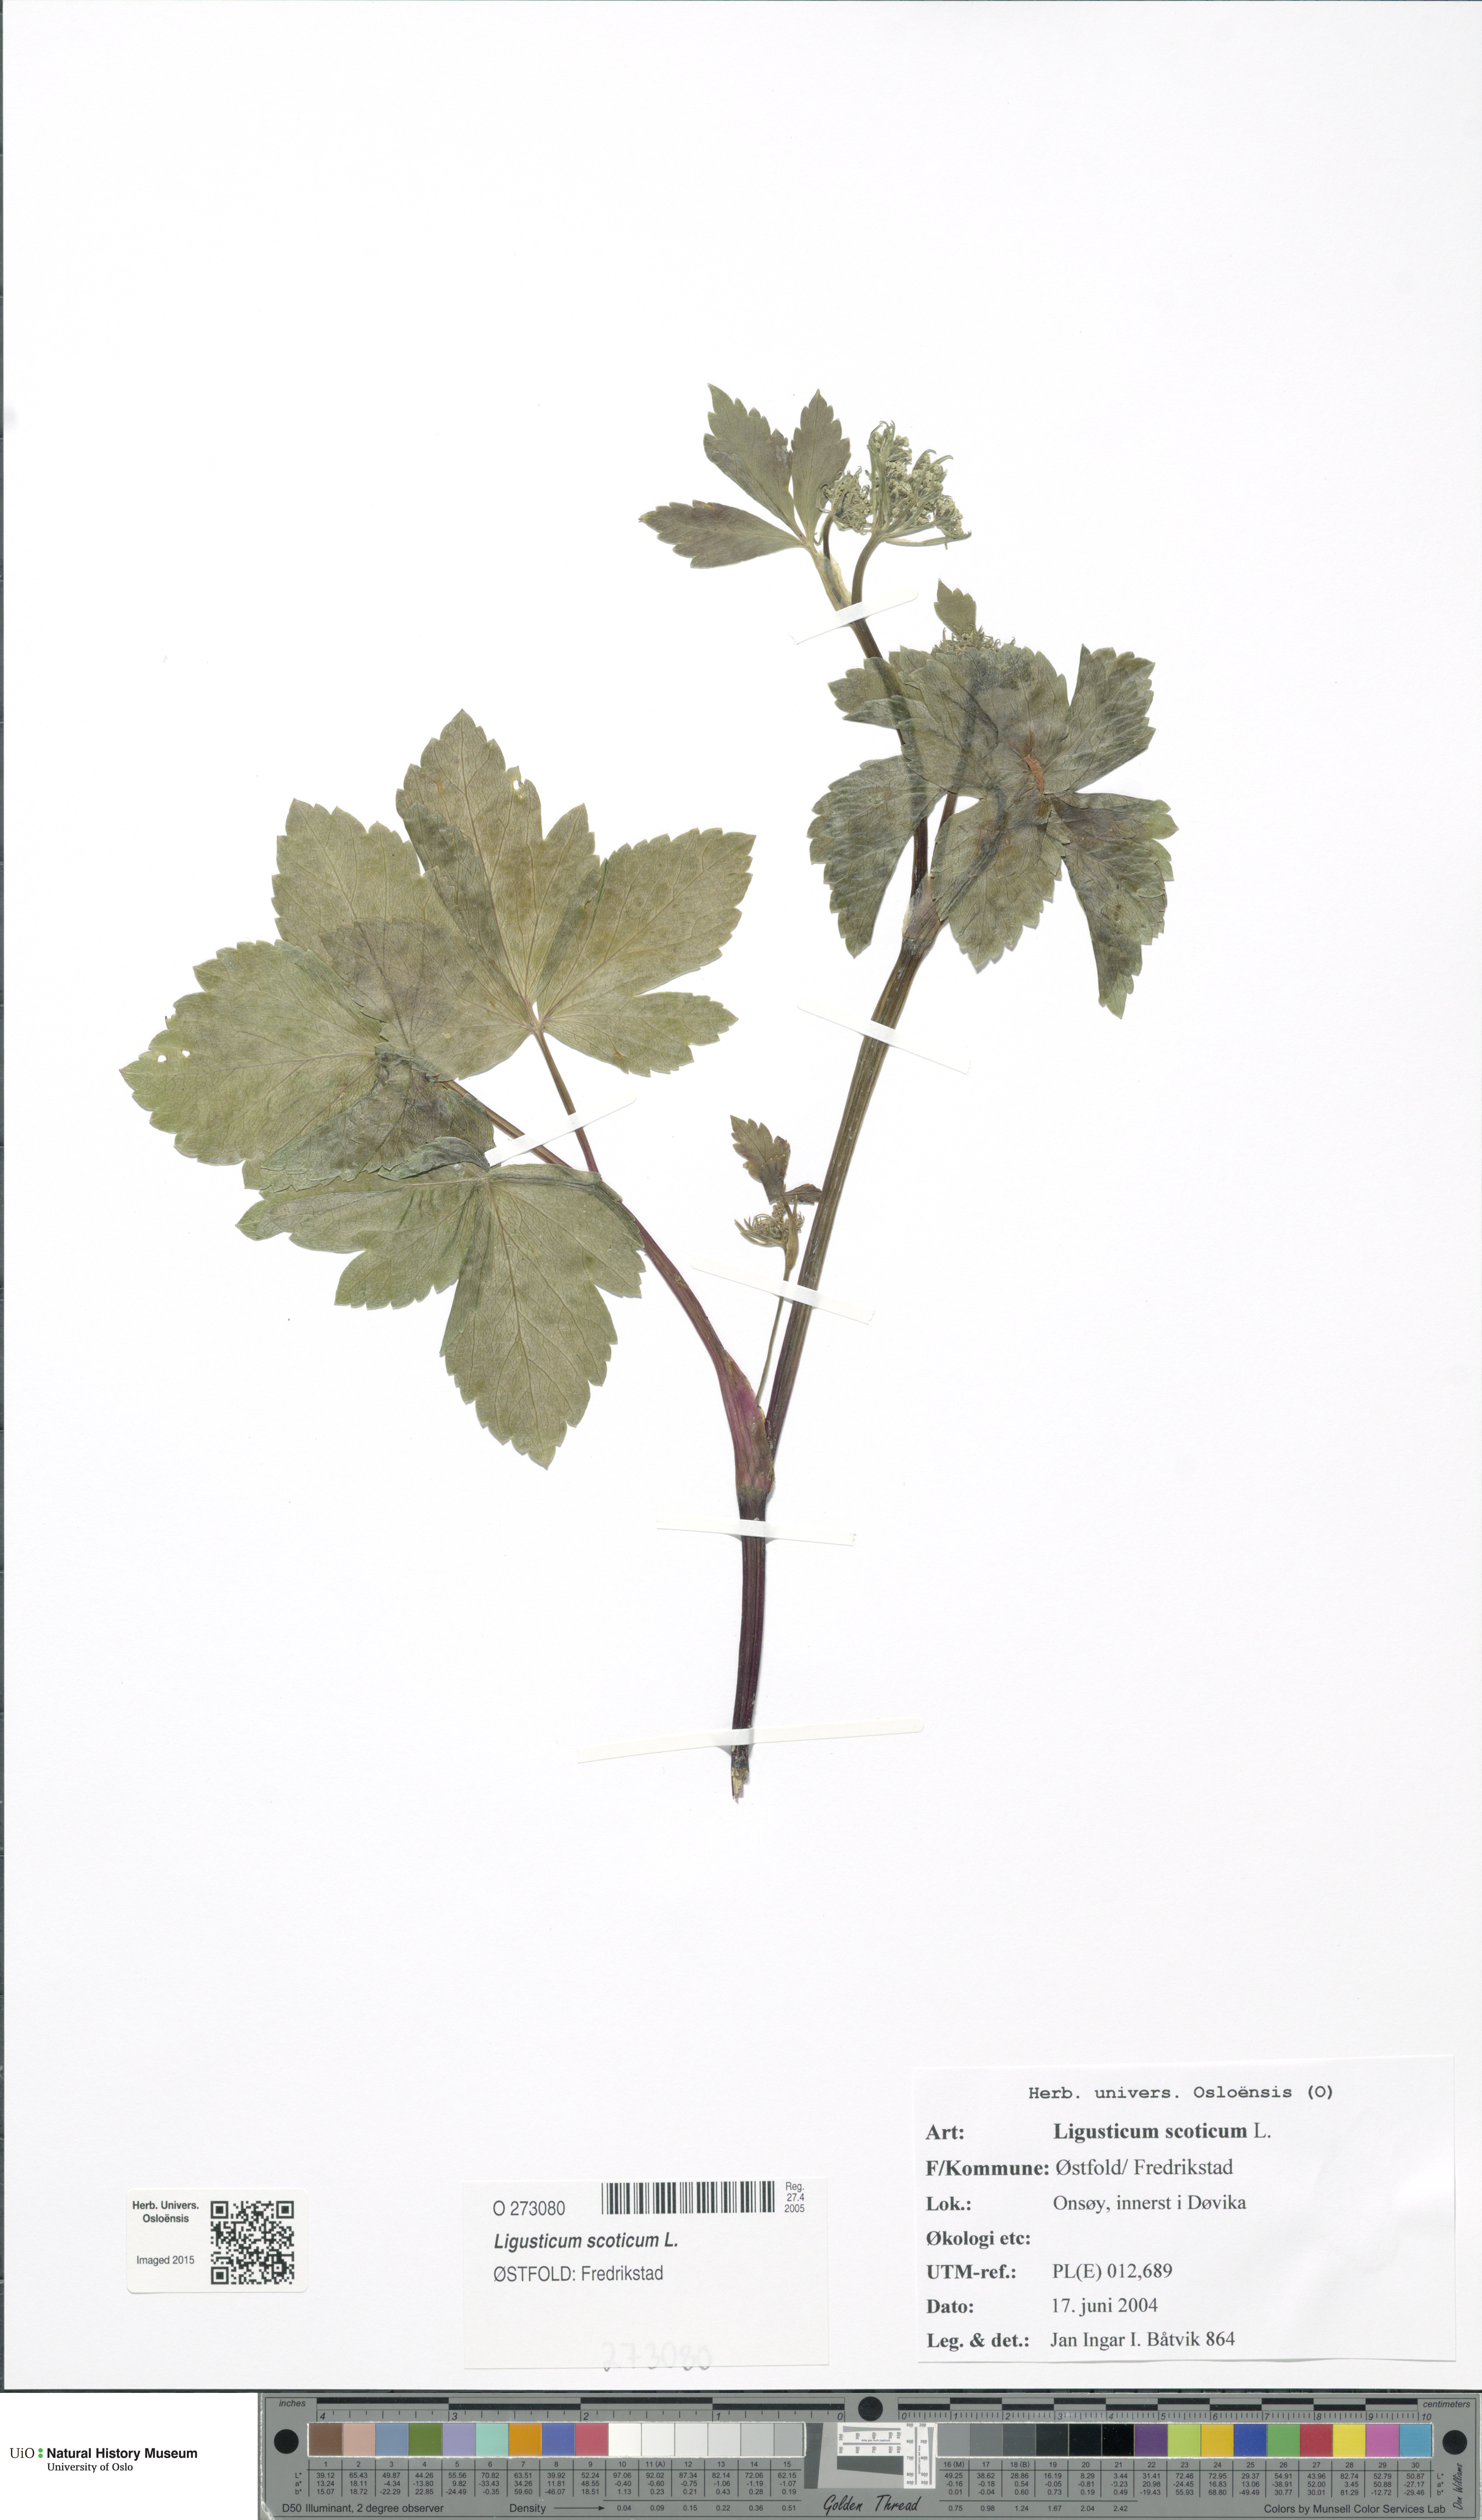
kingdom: Plantae
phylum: Tracheophyta
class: Magnoliopsida
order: Apiales
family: Apiaceae
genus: Ligusticum
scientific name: Ligusticum scothicum
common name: Beach lovage
